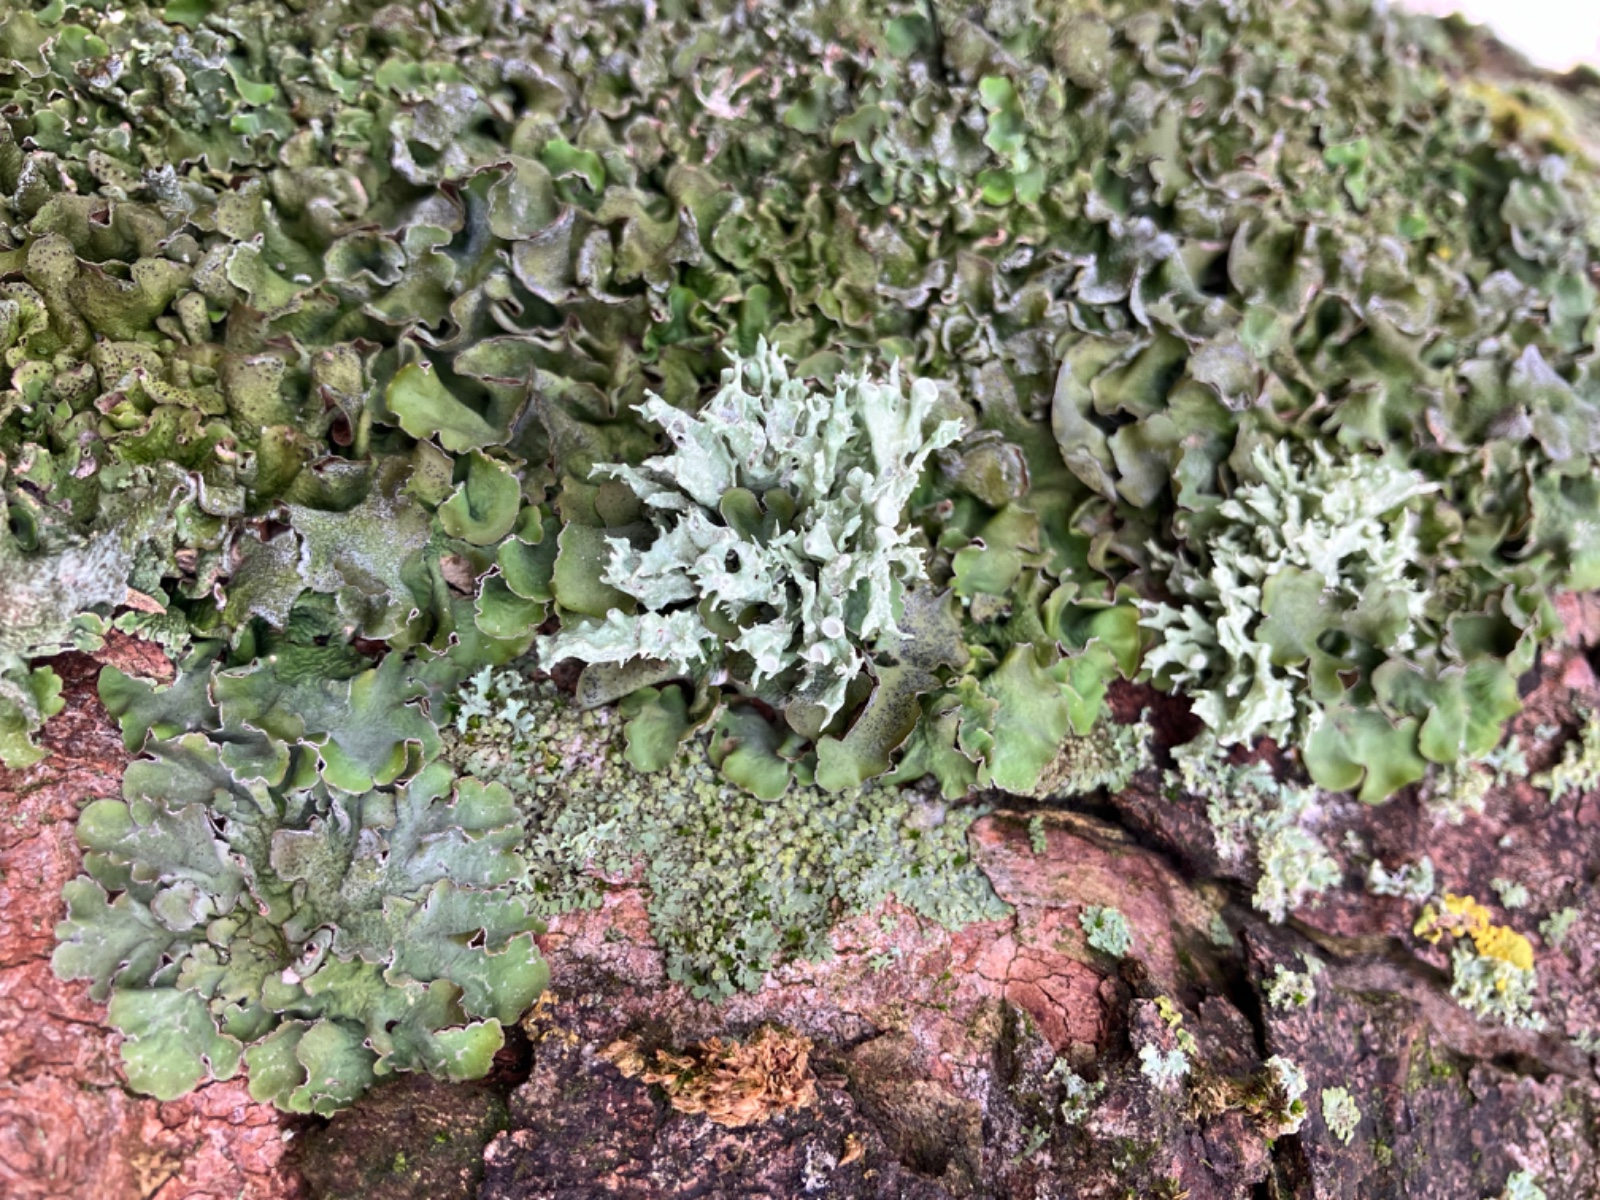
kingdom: Fungi
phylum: Ascomycota
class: Lecanoromycetes
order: Lecanorales
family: Ramalinaceae
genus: Ramalina
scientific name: Ramalina fastigiata
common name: tue-grenlav
